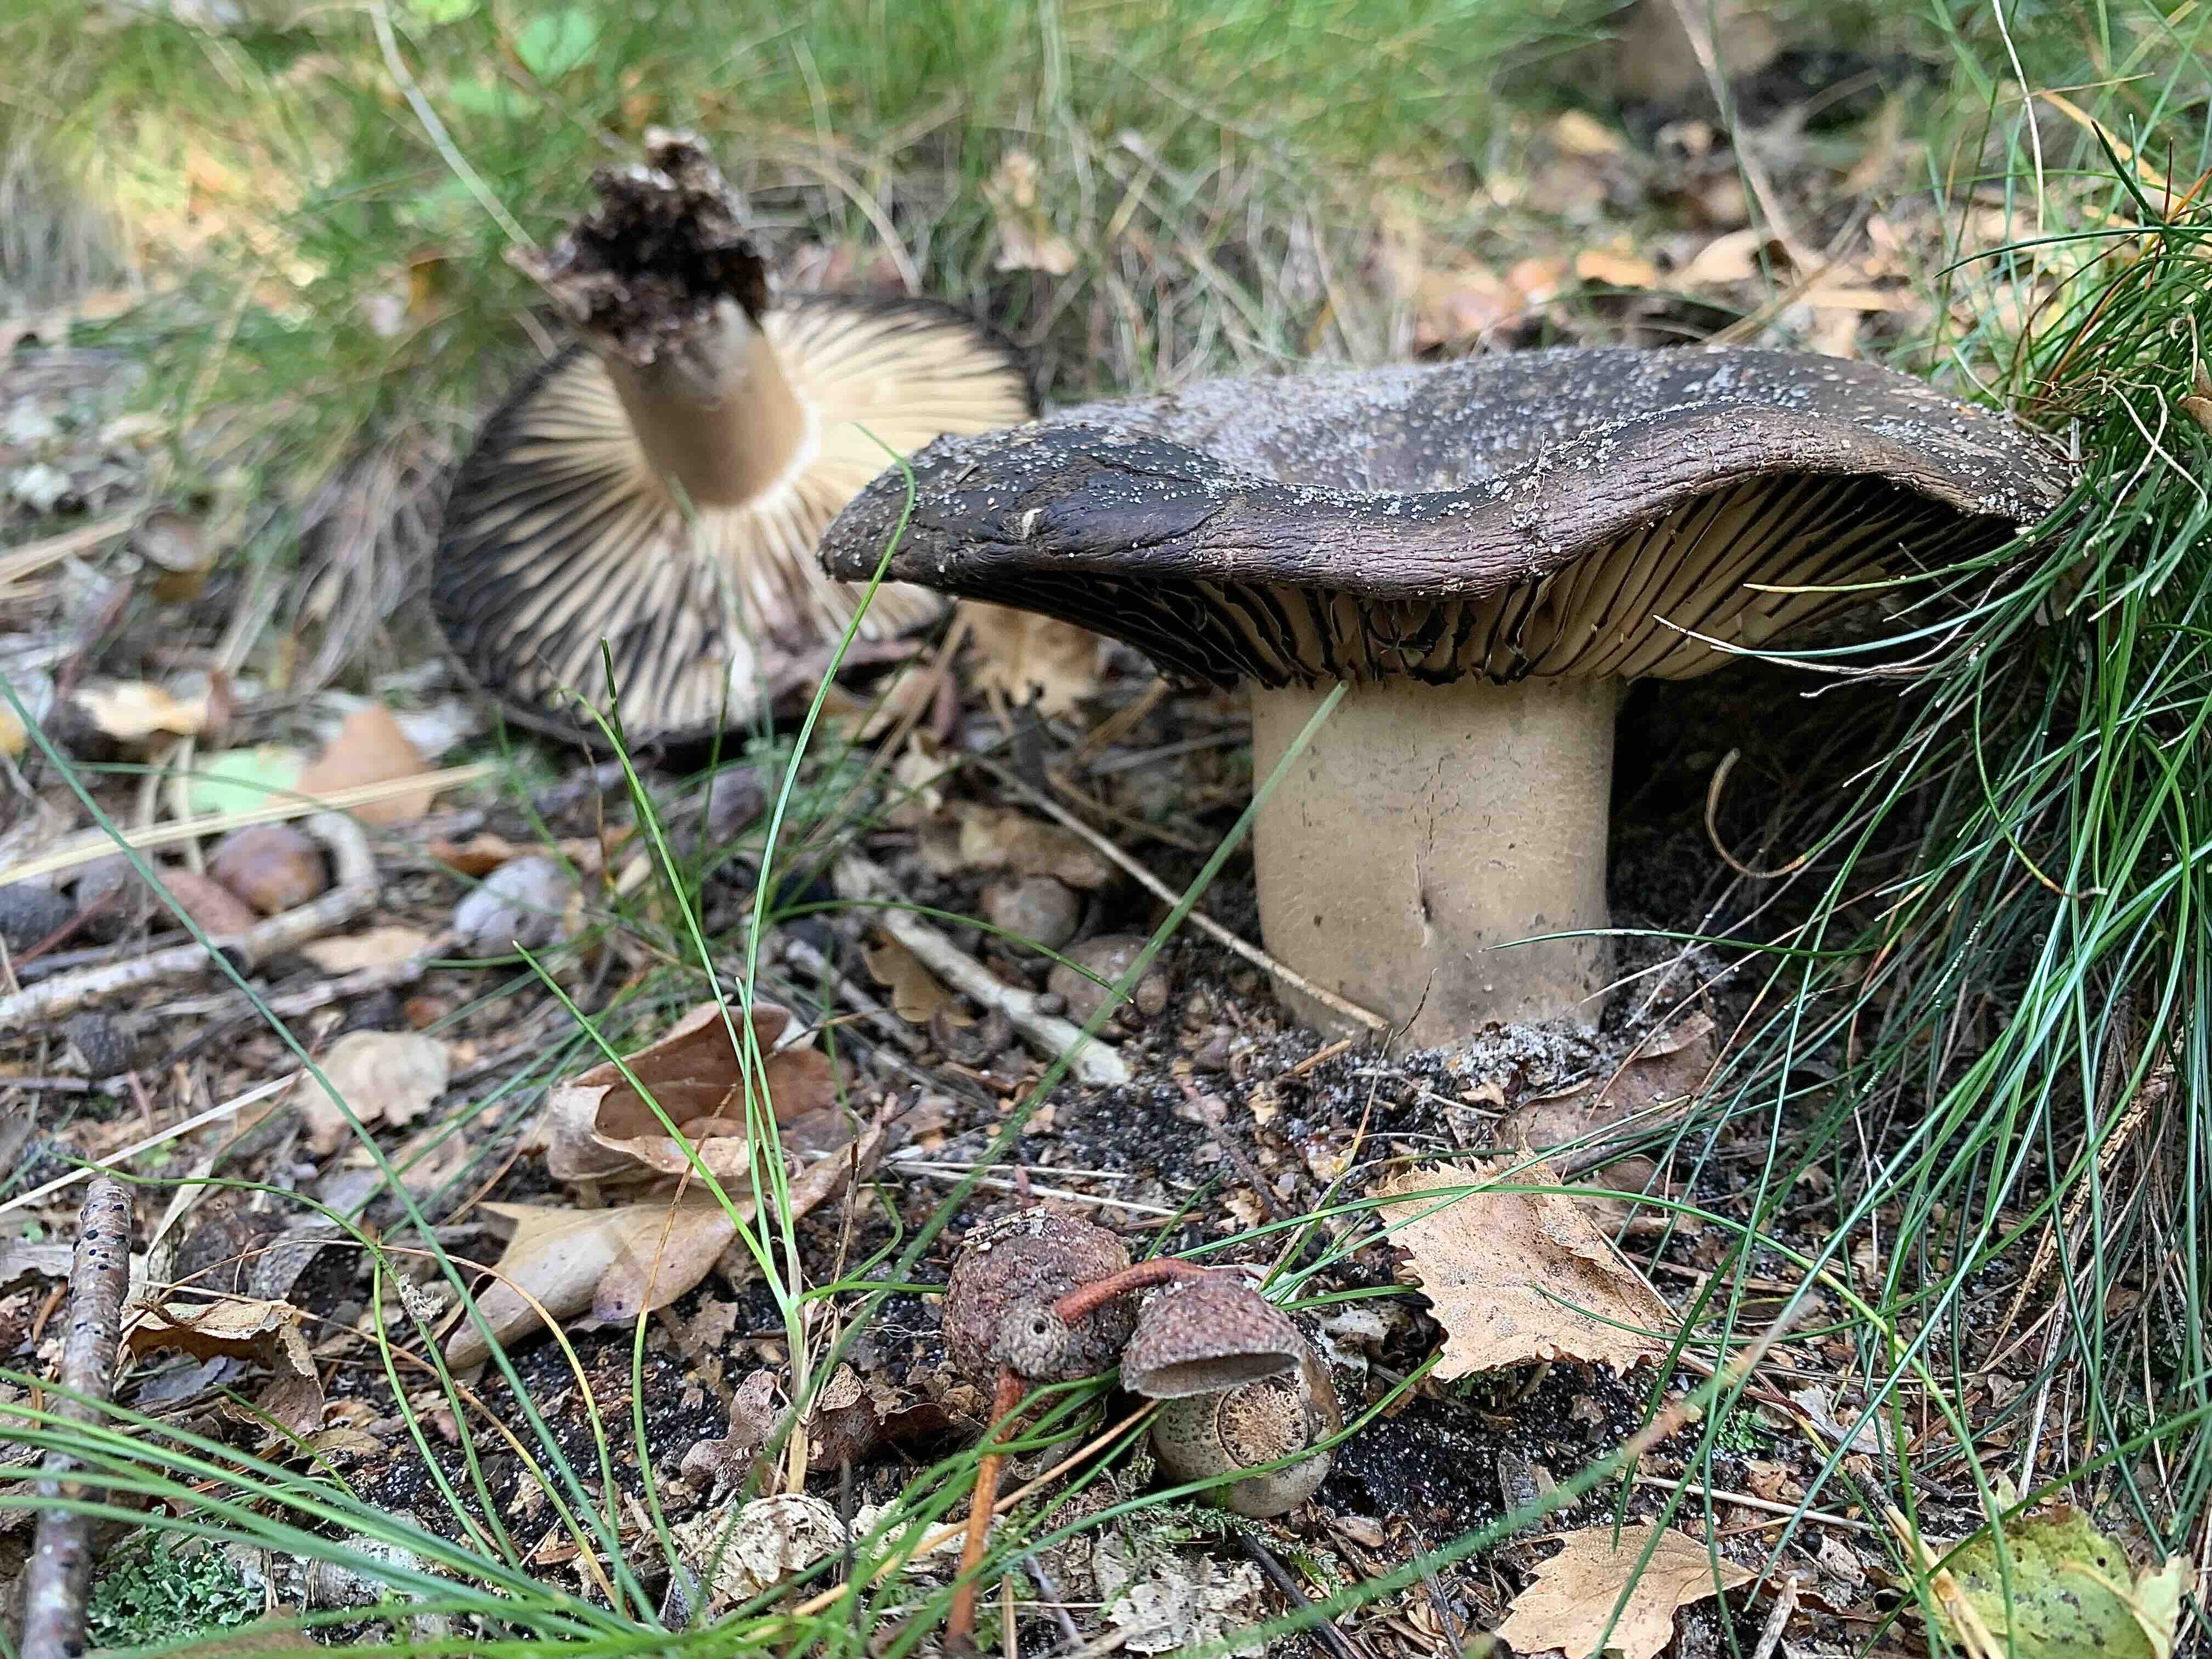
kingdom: Fungi
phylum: Basidiomycota
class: Agaricomycetes
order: Russulales
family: Russulaceae
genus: Russula
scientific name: Russula adusta
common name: sværtende skørhat
